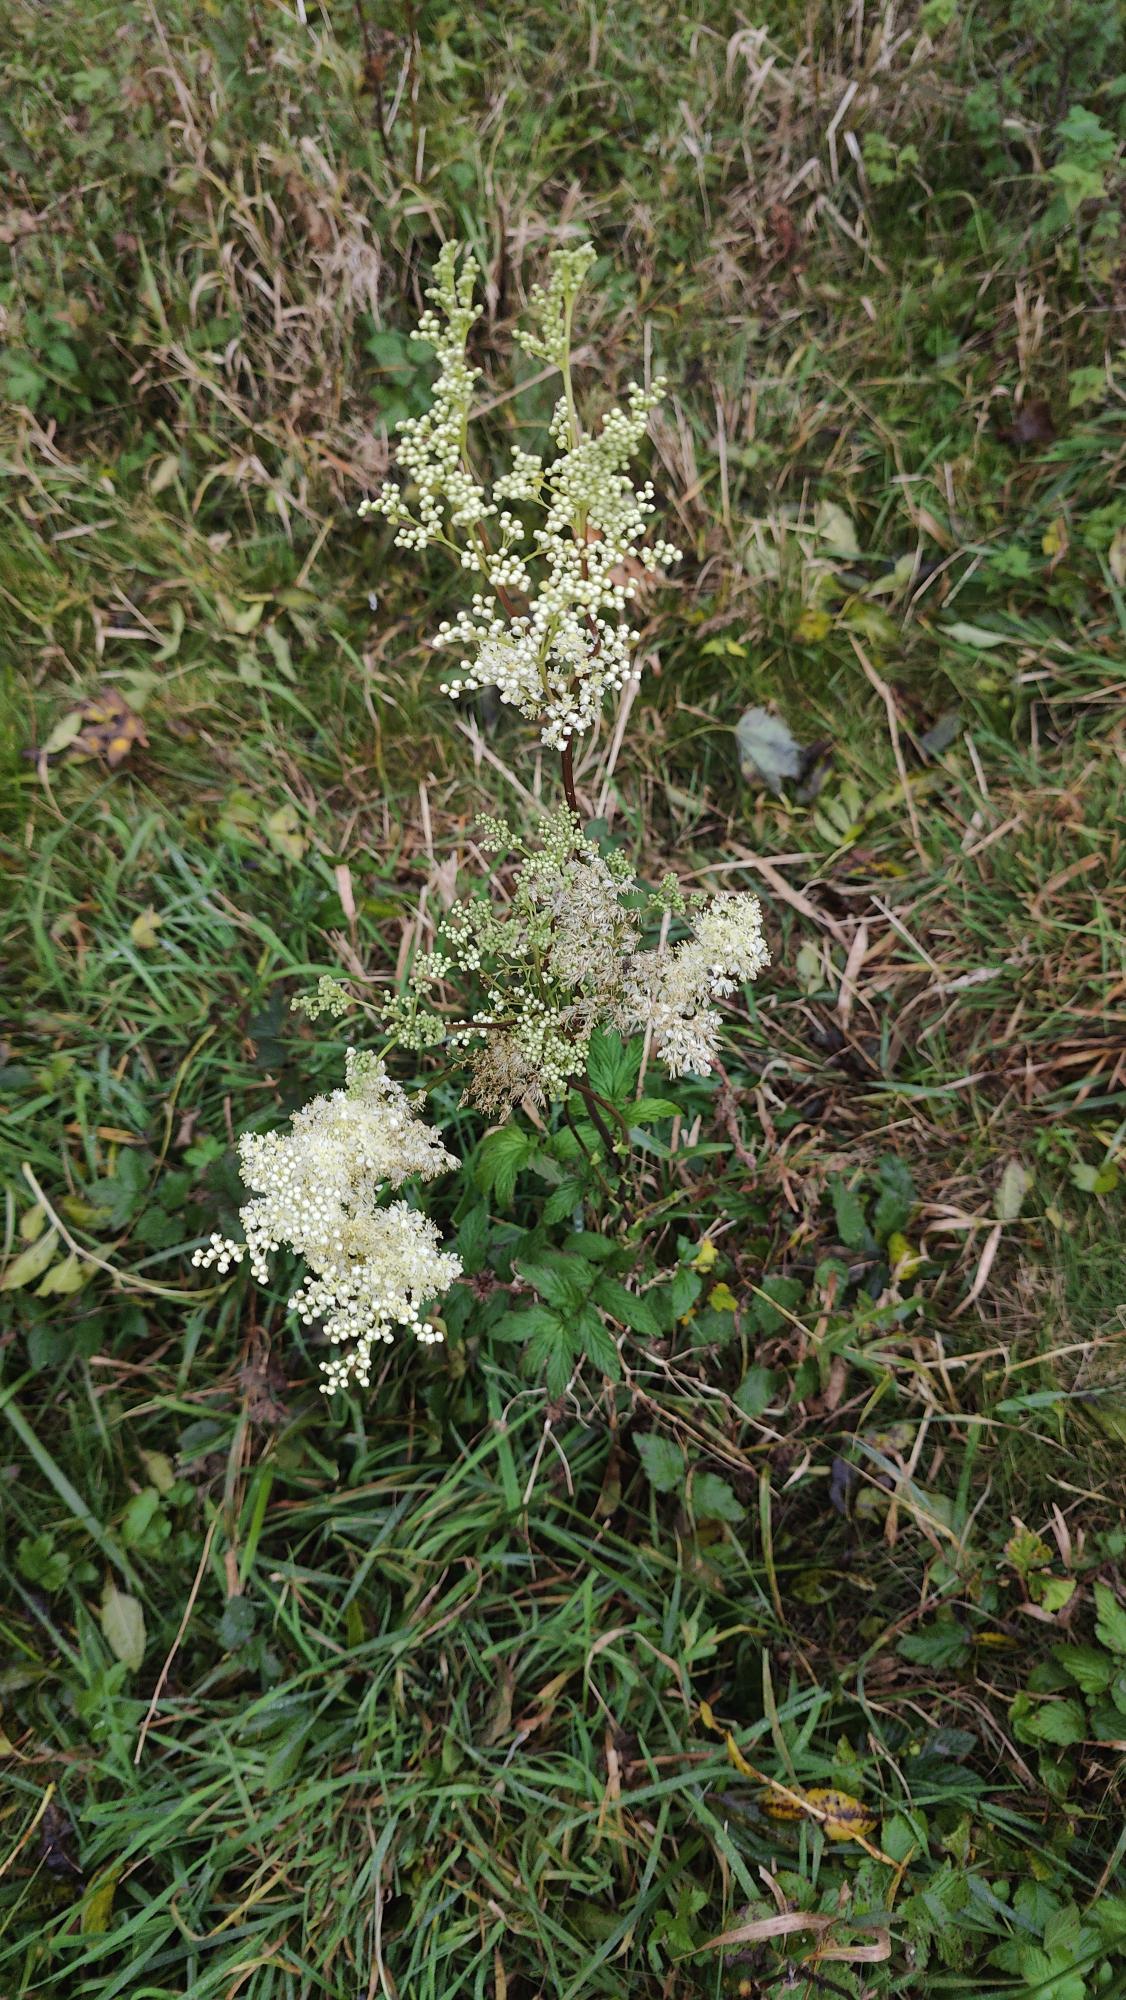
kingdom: Plantae
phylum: Tracheophyta
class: Magnoliopsida
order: Rosales
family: Rosaceae
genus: Filipendula
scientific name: Filipendula ulmaria
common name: Almindelig mjødurt
